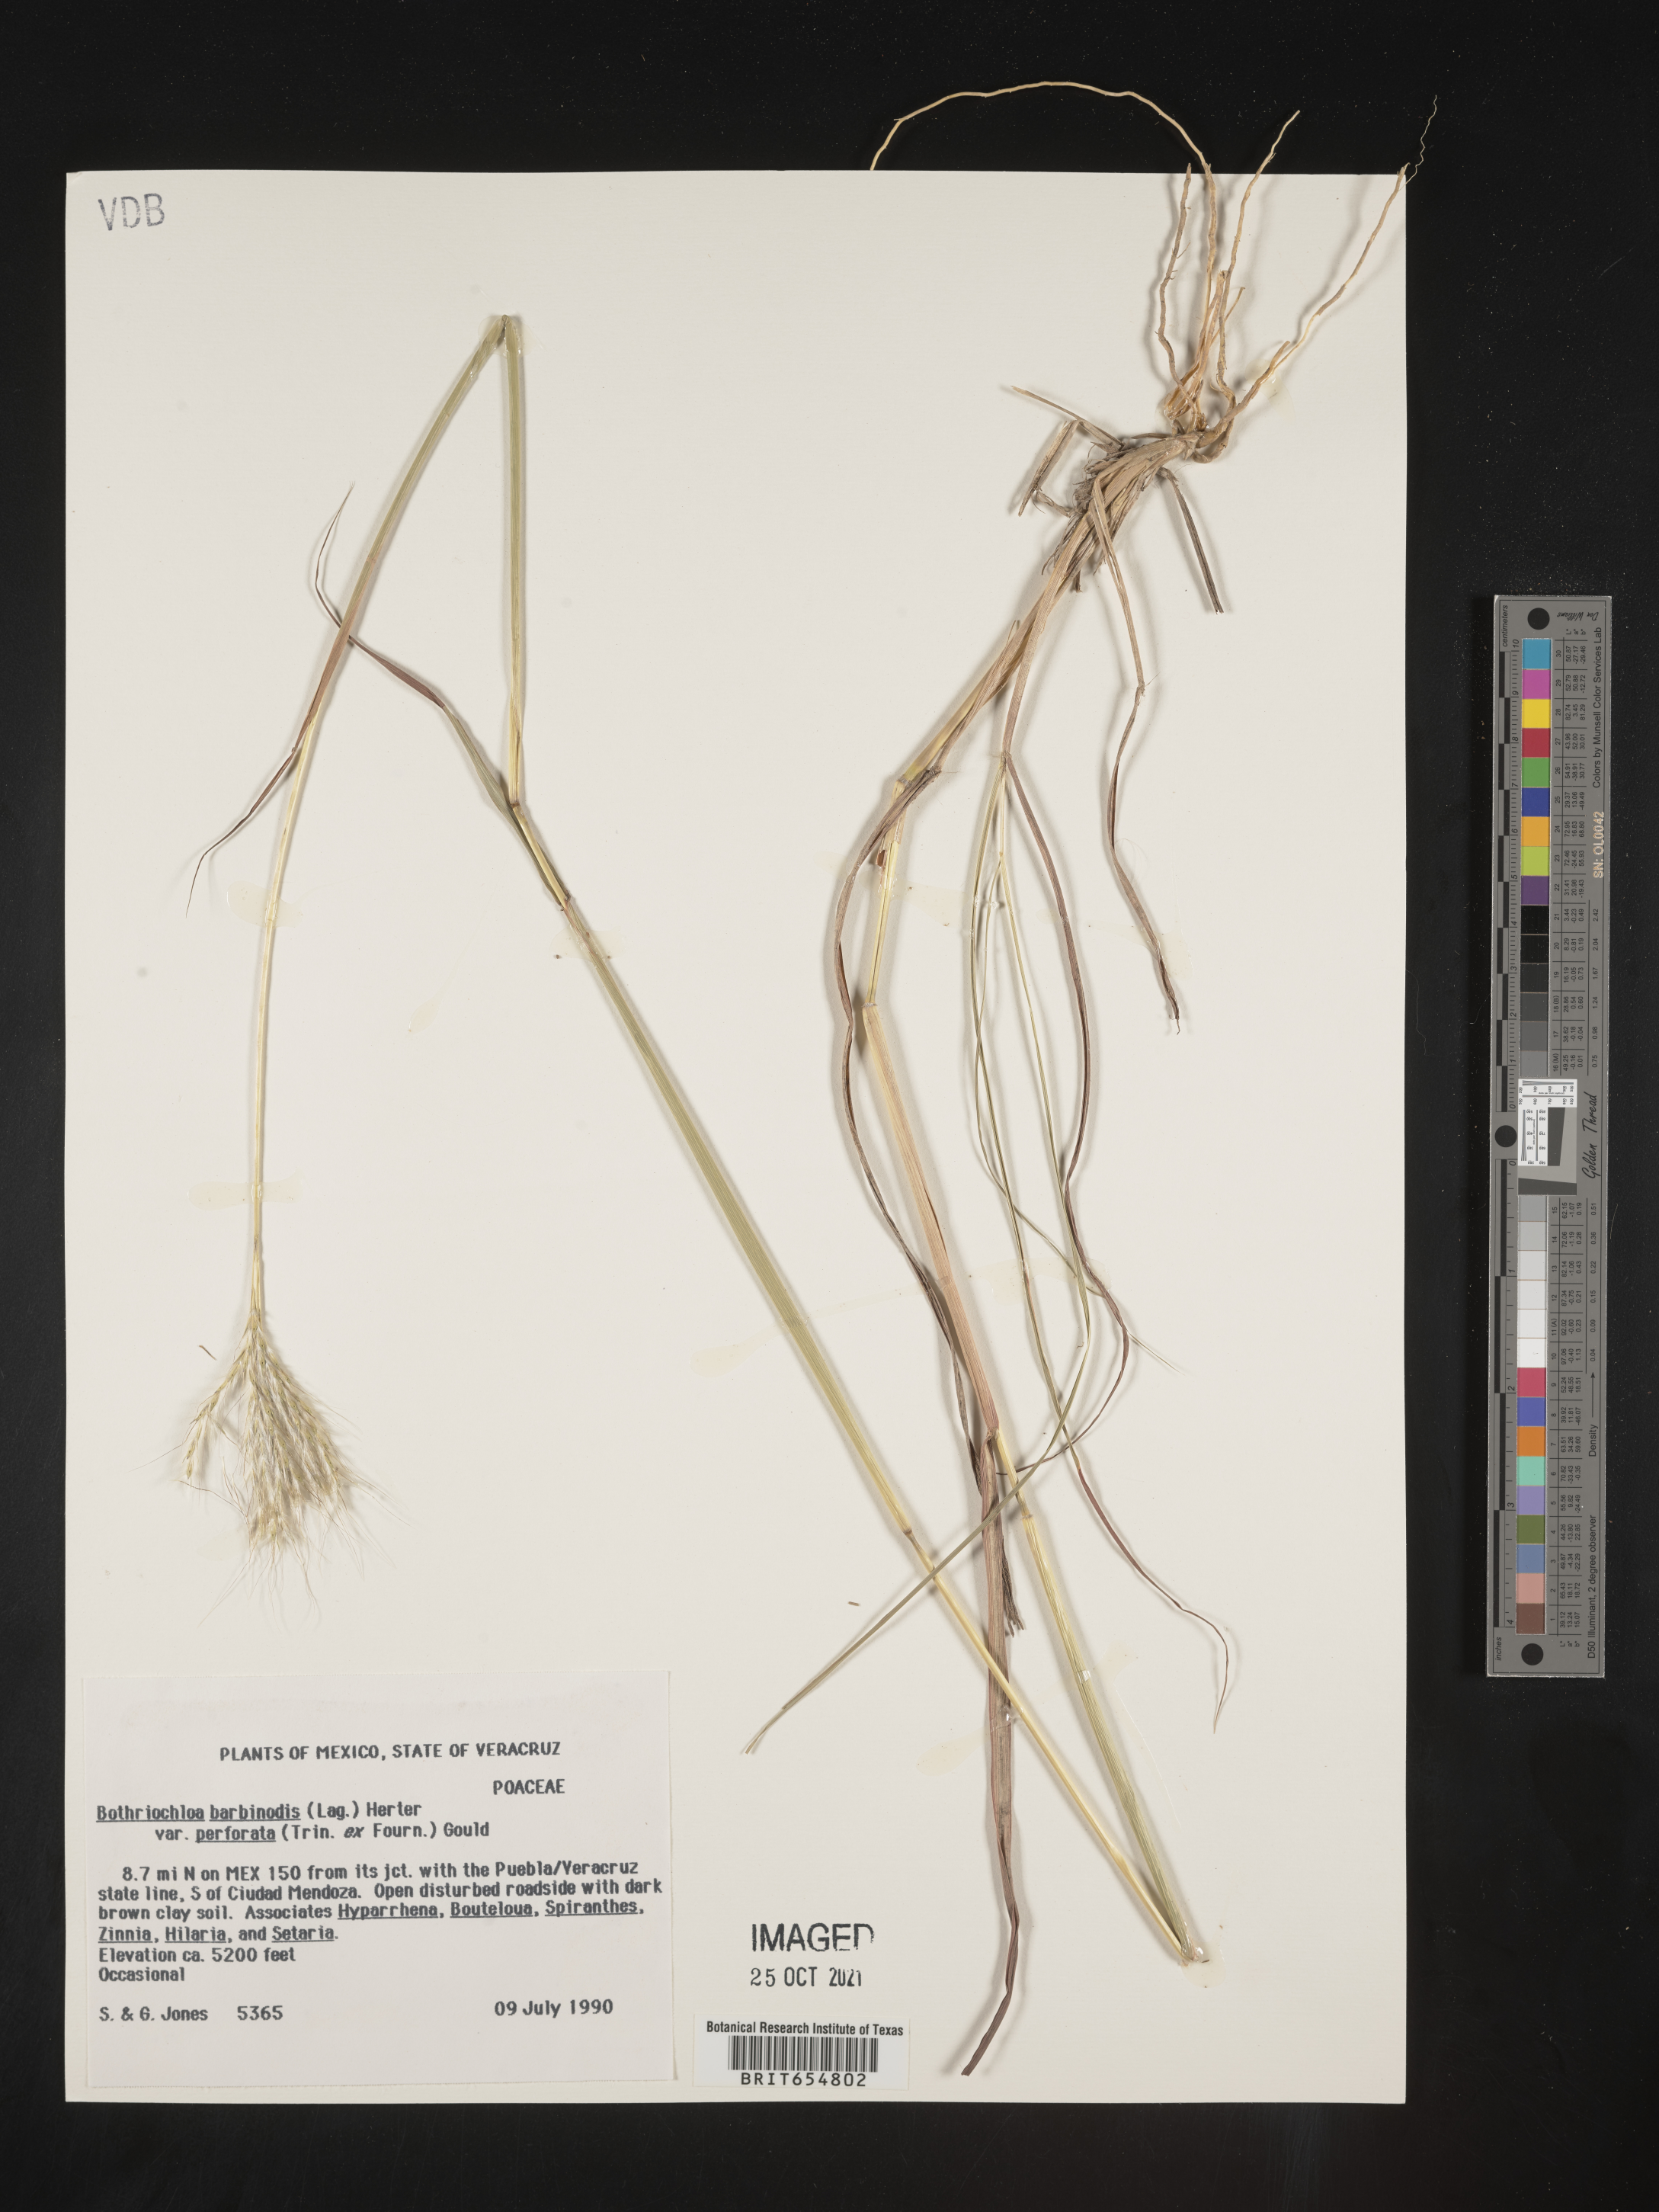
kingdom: Plantae
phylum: Tracheophyta
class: Liliopsida
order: Poales
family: Poaceae
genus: Andropogon
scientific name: Andropogon
